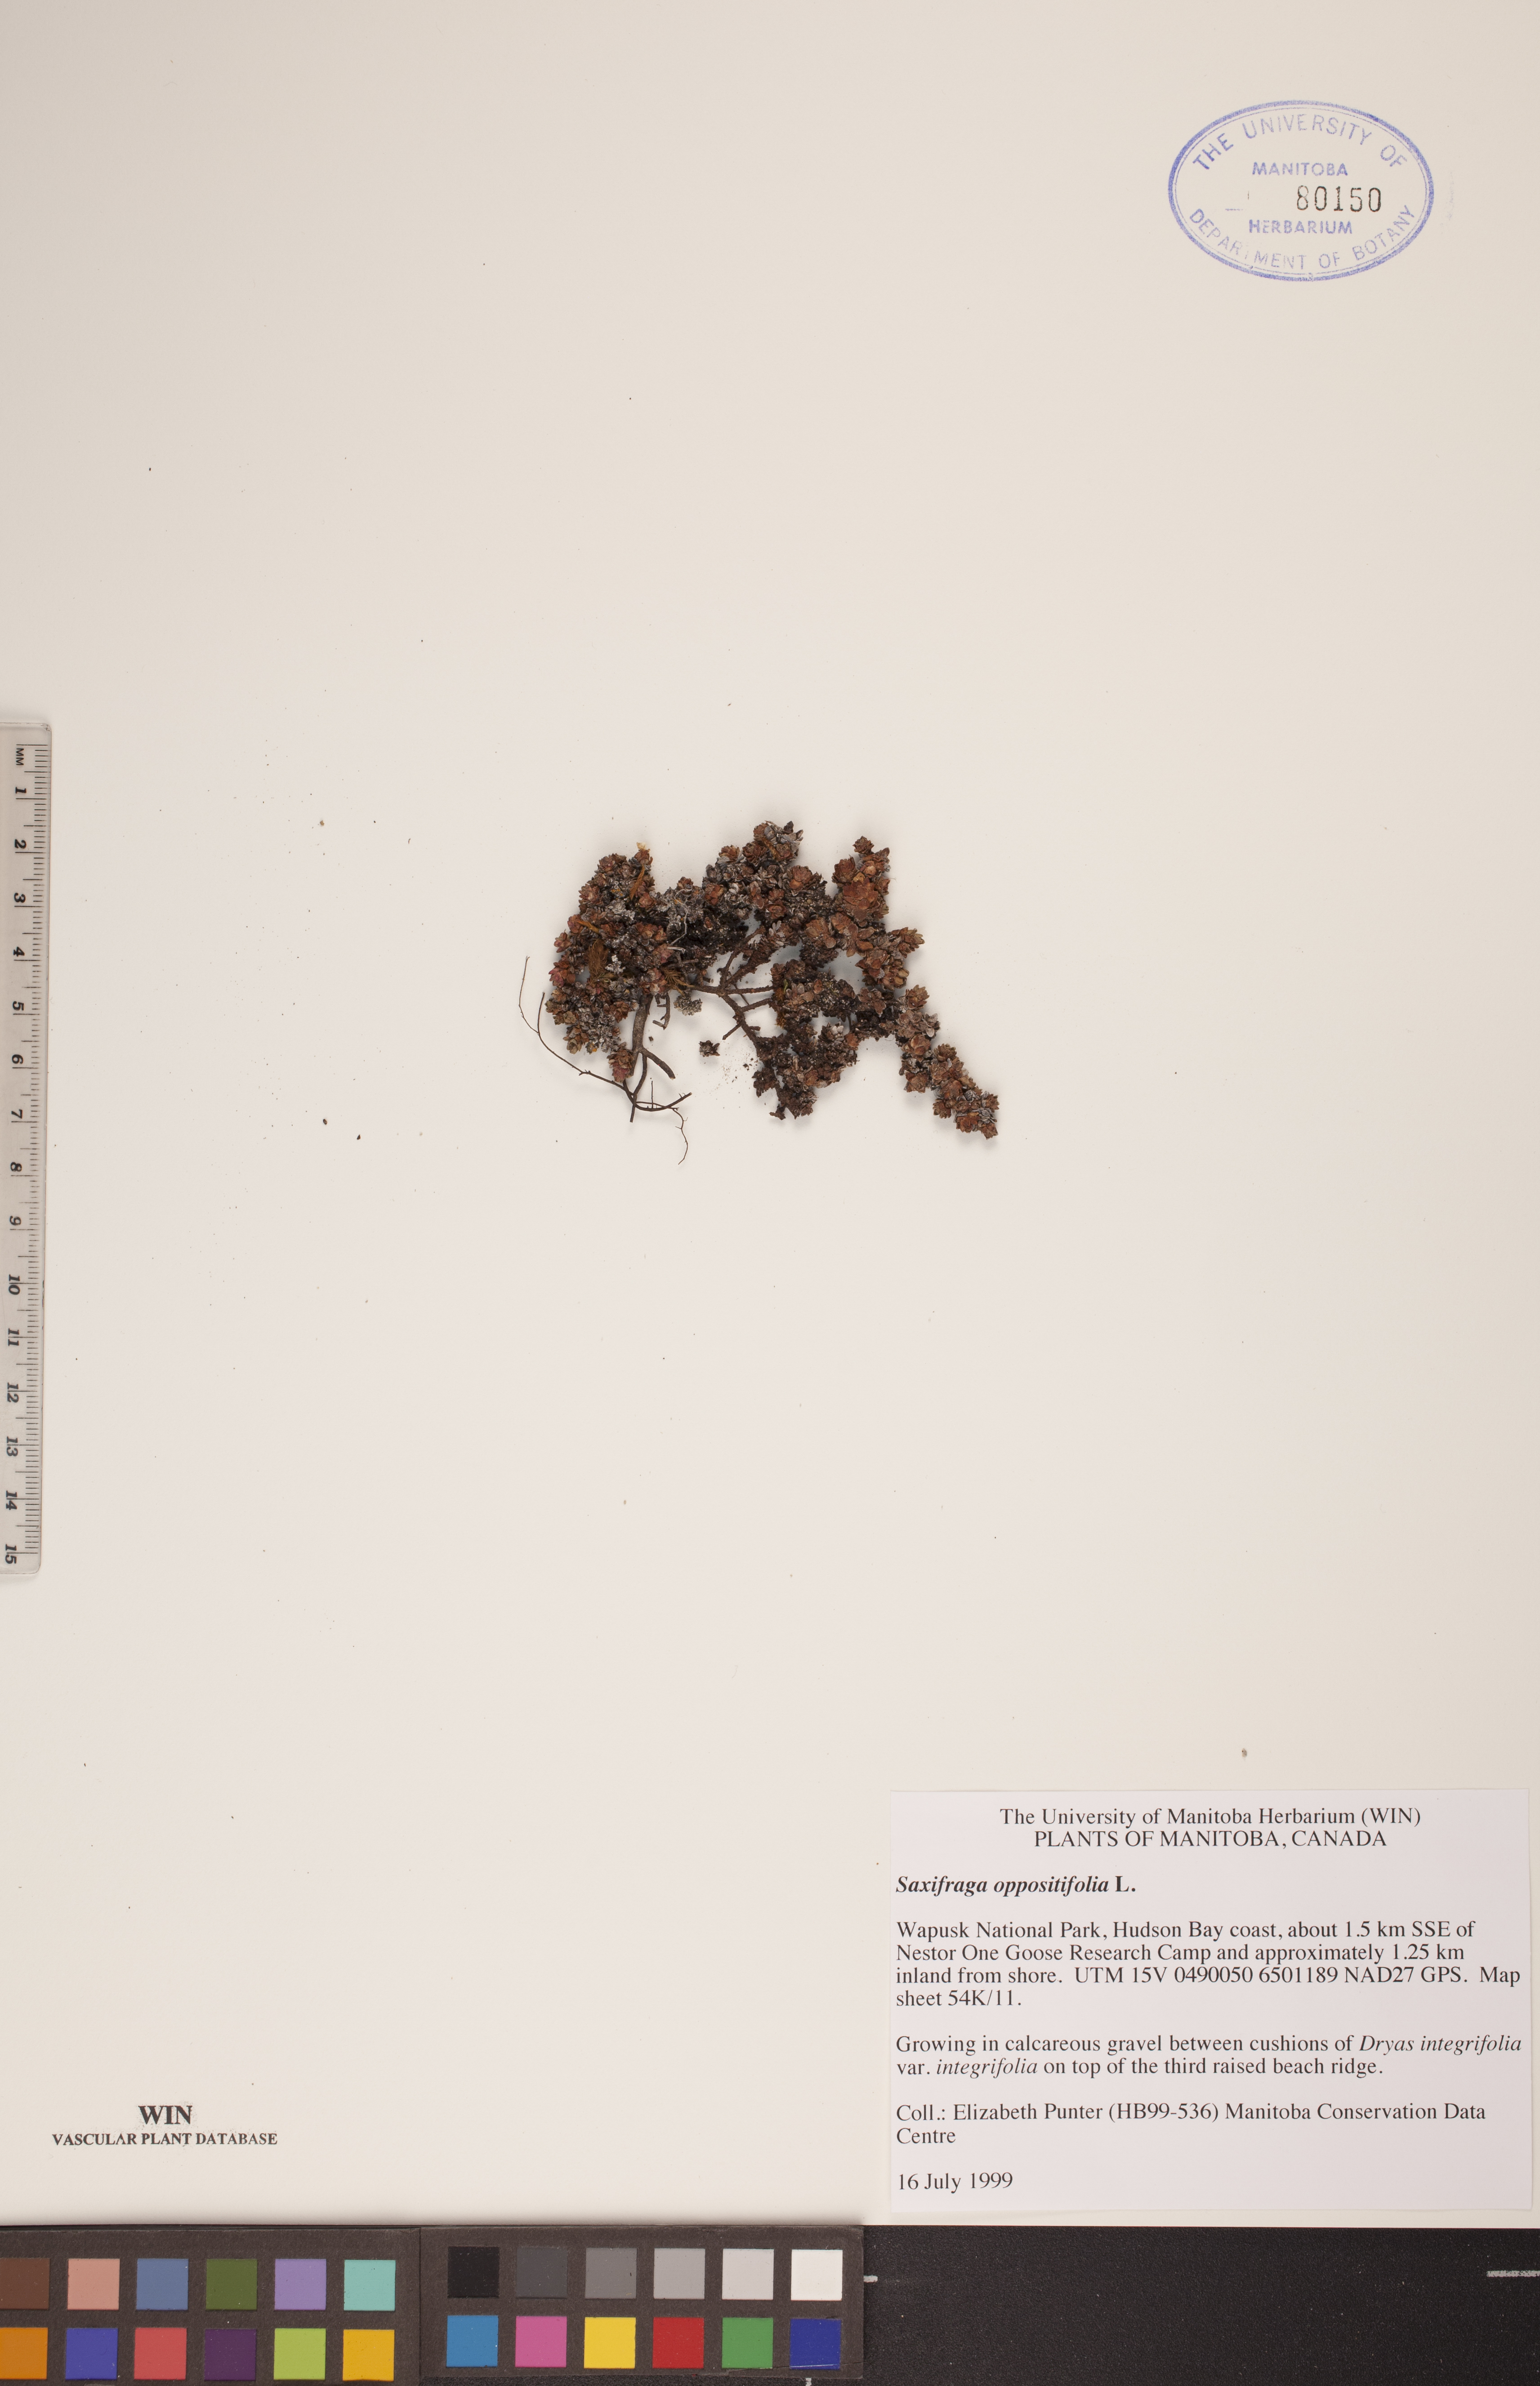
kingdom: Plantae
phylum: Tracheophyta
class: Magnoliopsida
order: Saxifragales
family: Saxifragaceae
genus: Saxifraga
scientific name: Saxifraga oppositifolia
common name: Purple saxifrage
